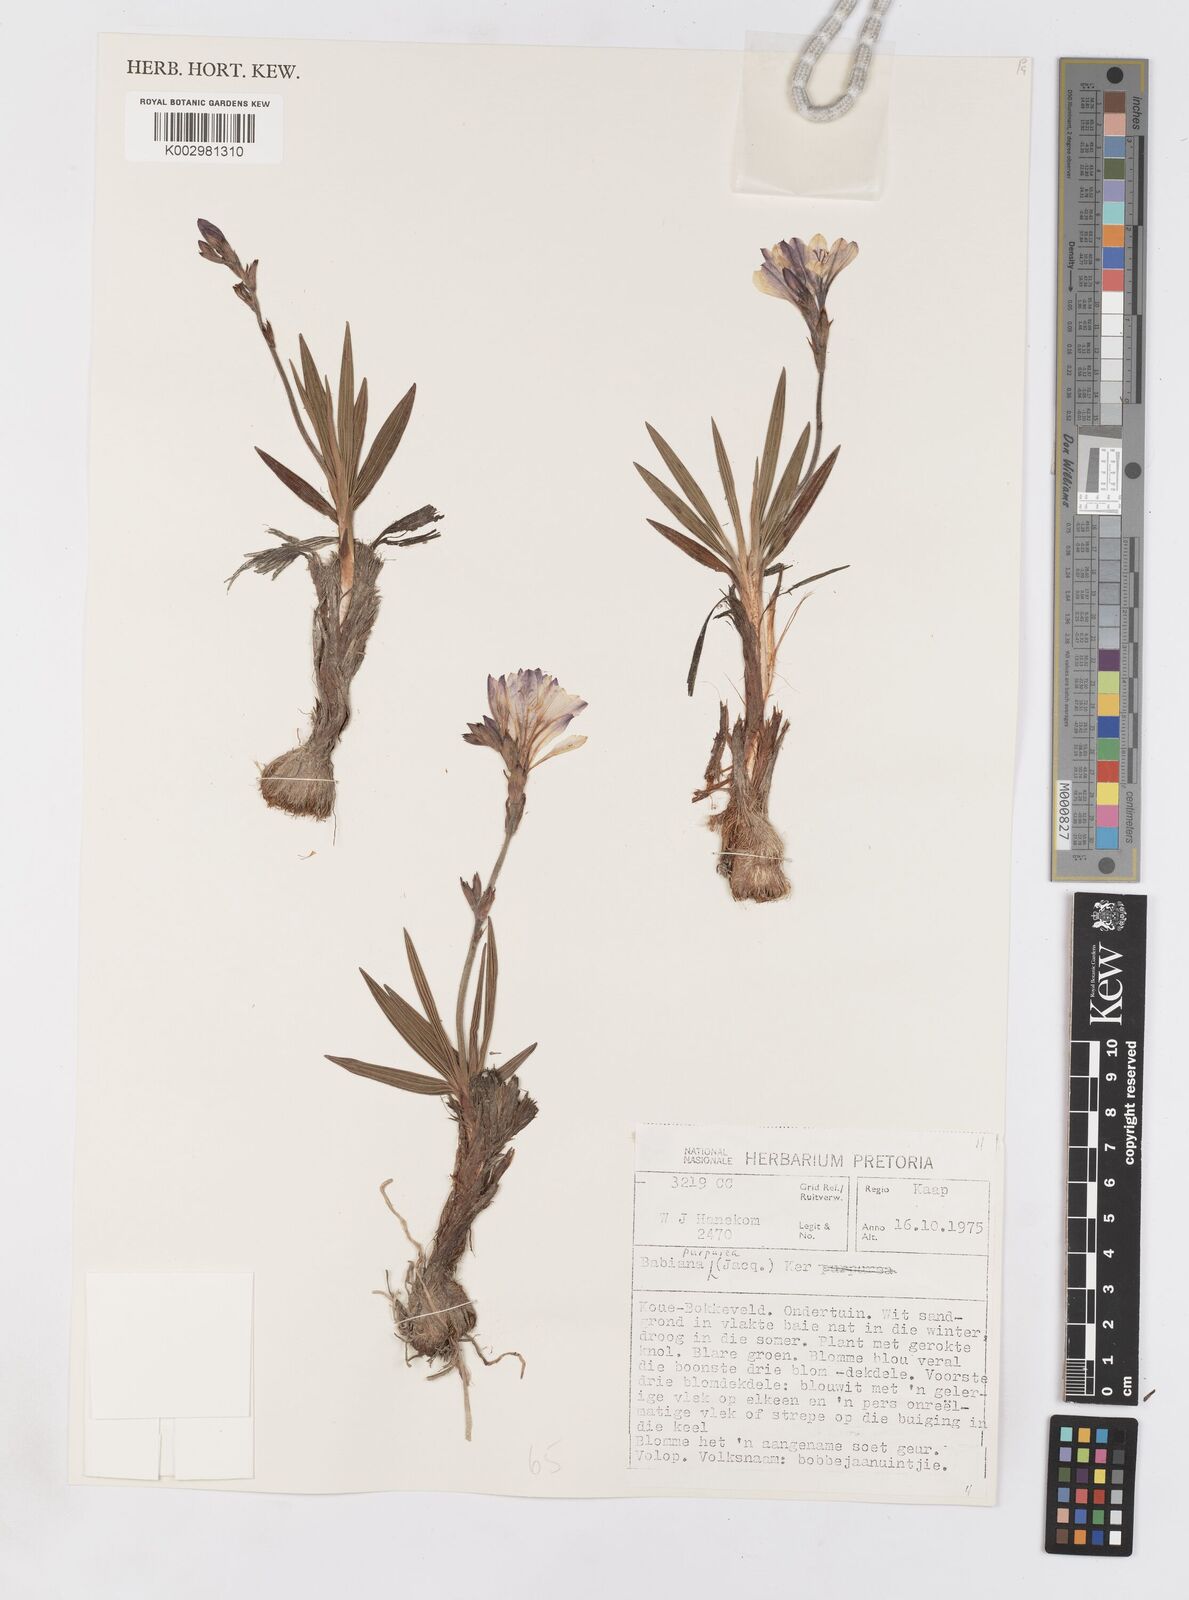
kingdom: Plantae
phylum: Tracheophyta
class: Liliopsida
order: Asparagales
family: Iridaceae
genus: Babiana
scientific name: Babiana purpurea
